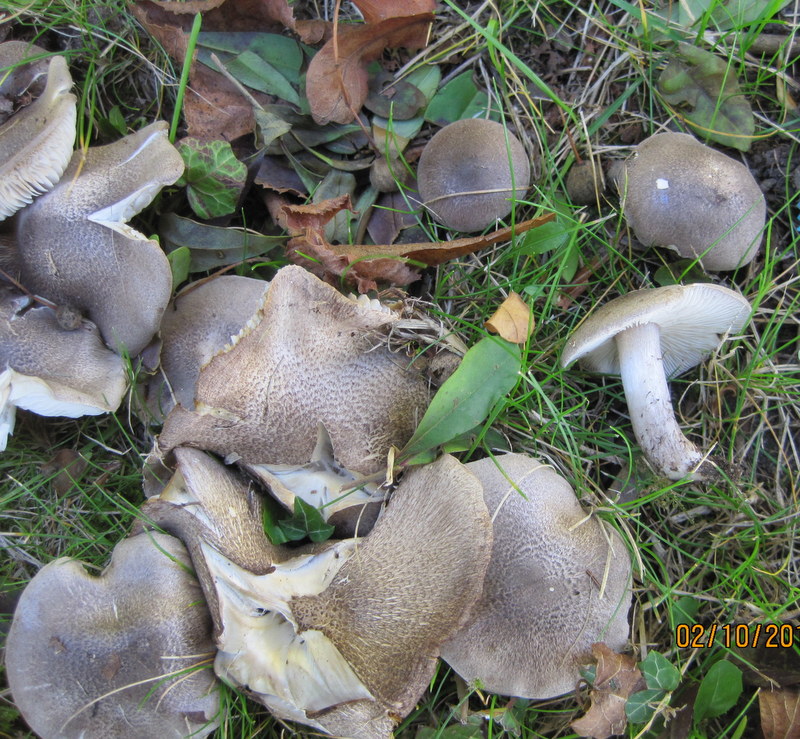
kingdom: Fungi
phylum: Basidiomycota
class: Agaricomycetes
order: Agaricales
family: Tricholomataceae
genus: Tricholoma
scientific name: Tricholoma sciodes
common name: stribet ridderhat
